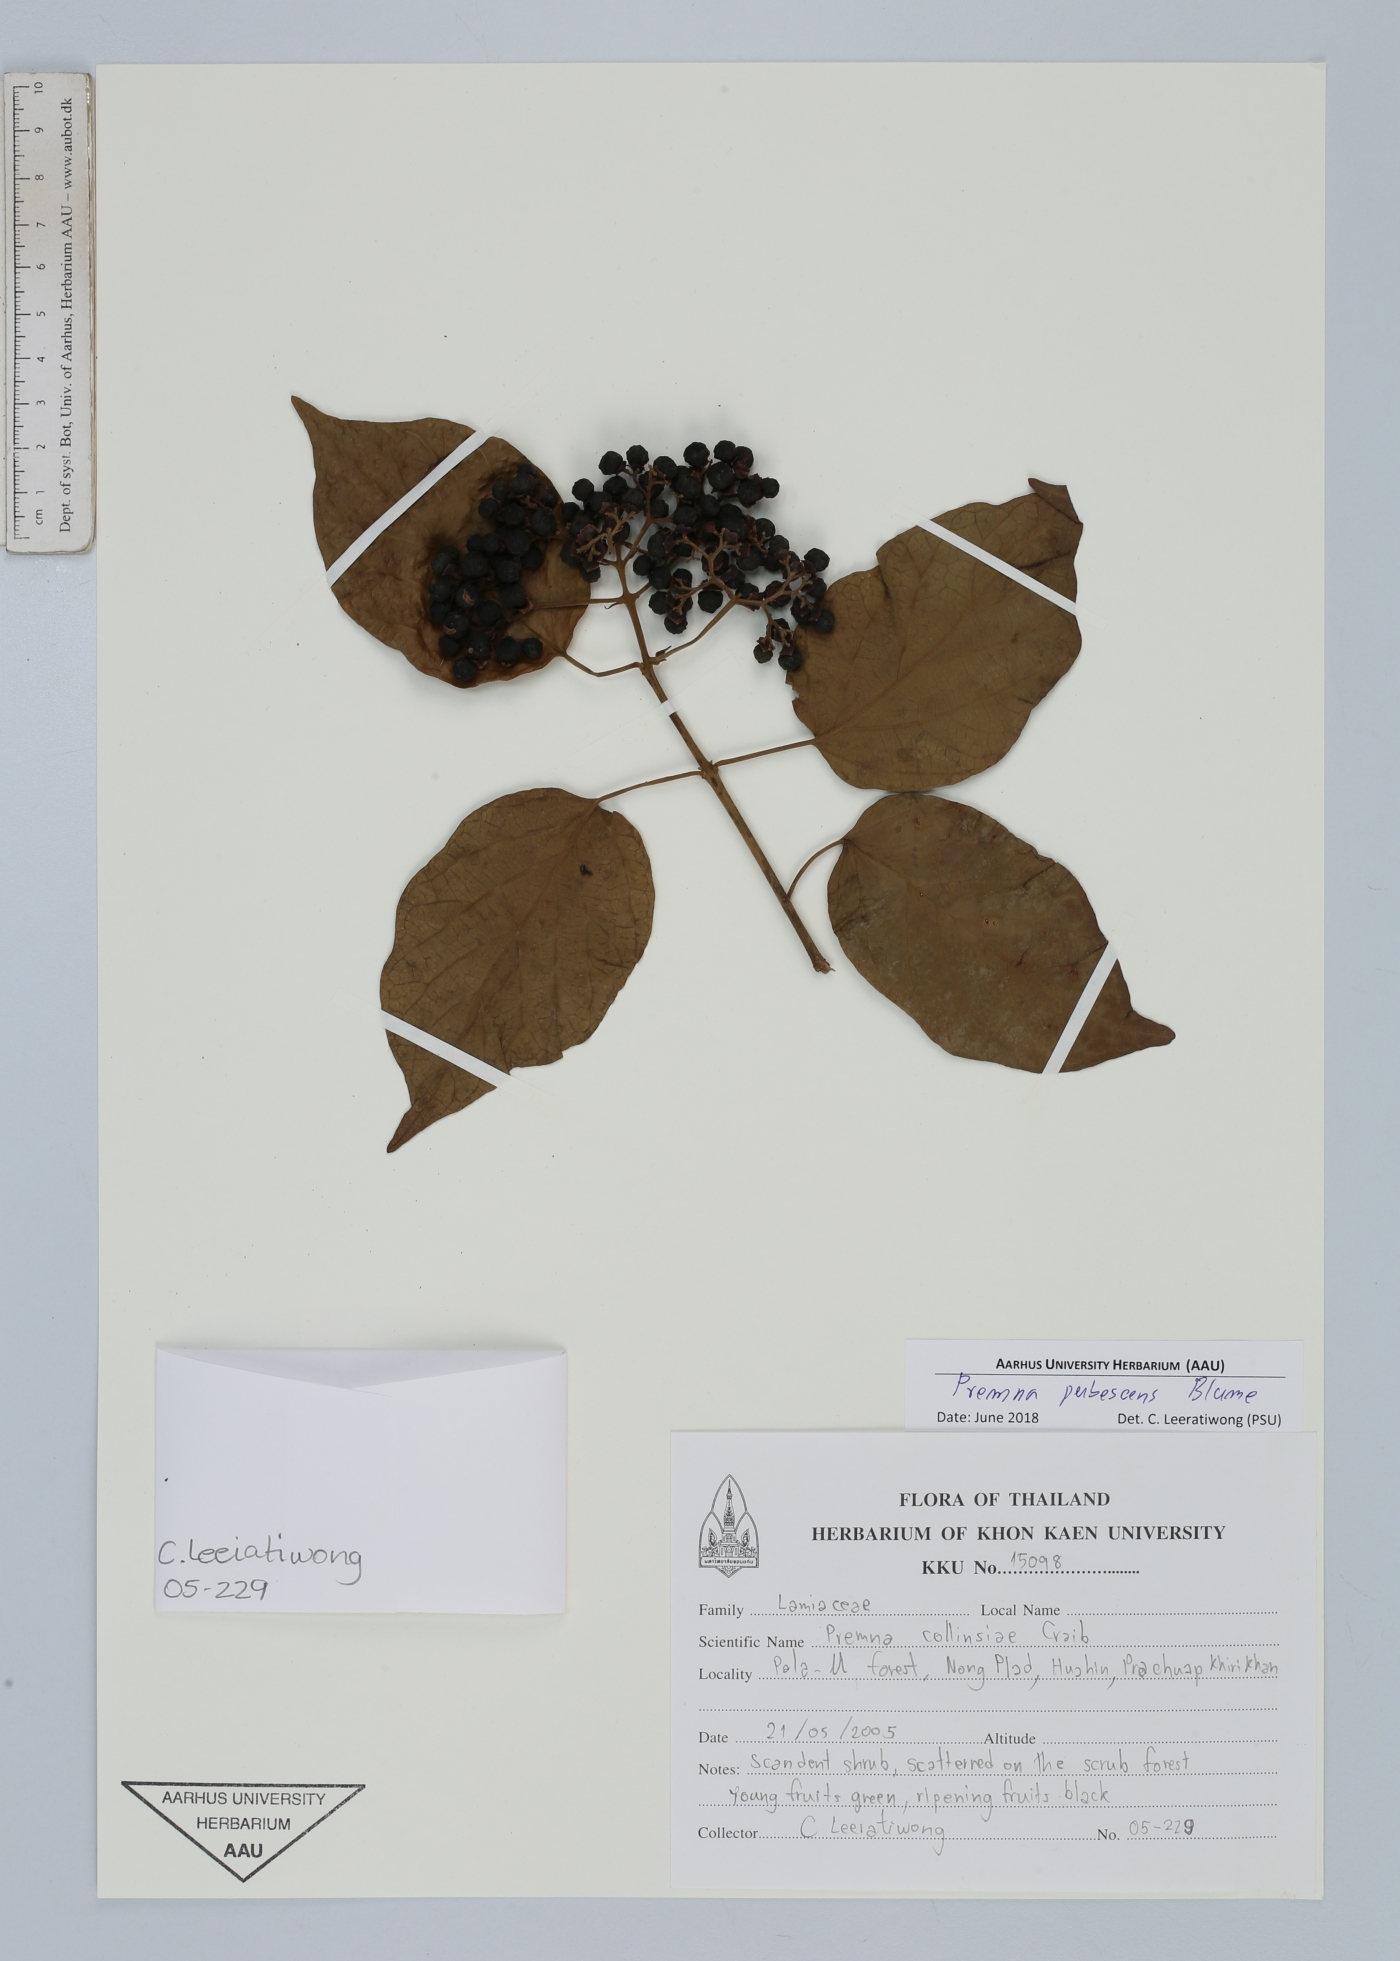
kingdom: Plantae
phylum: Tracheophyta
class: Magnoliopsida
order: Lamiales
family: Lamiaceae
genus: Premna
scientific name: Premna pubescens
